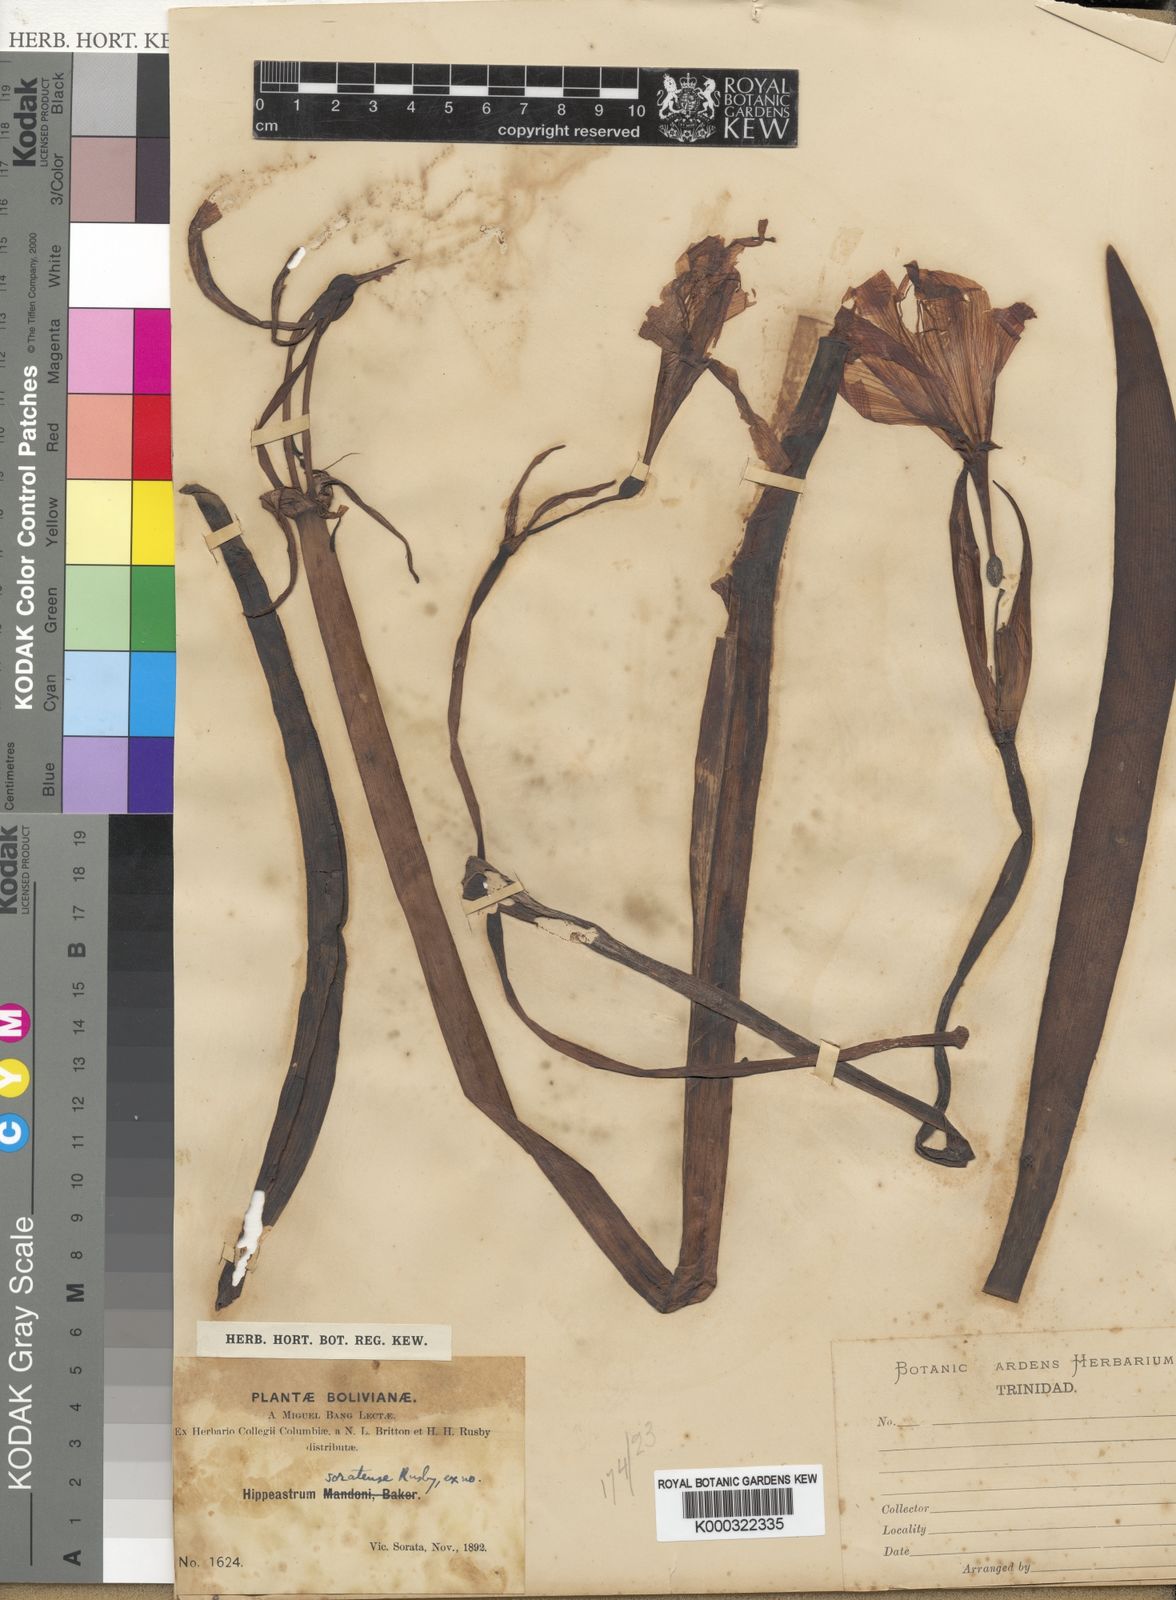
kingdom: Plantae
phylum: Tracheophyta
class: Liliopsida
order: Asparagales
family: Amaryllidaceae
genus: Hippeastrum
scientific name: Hippeastrum haywardii
